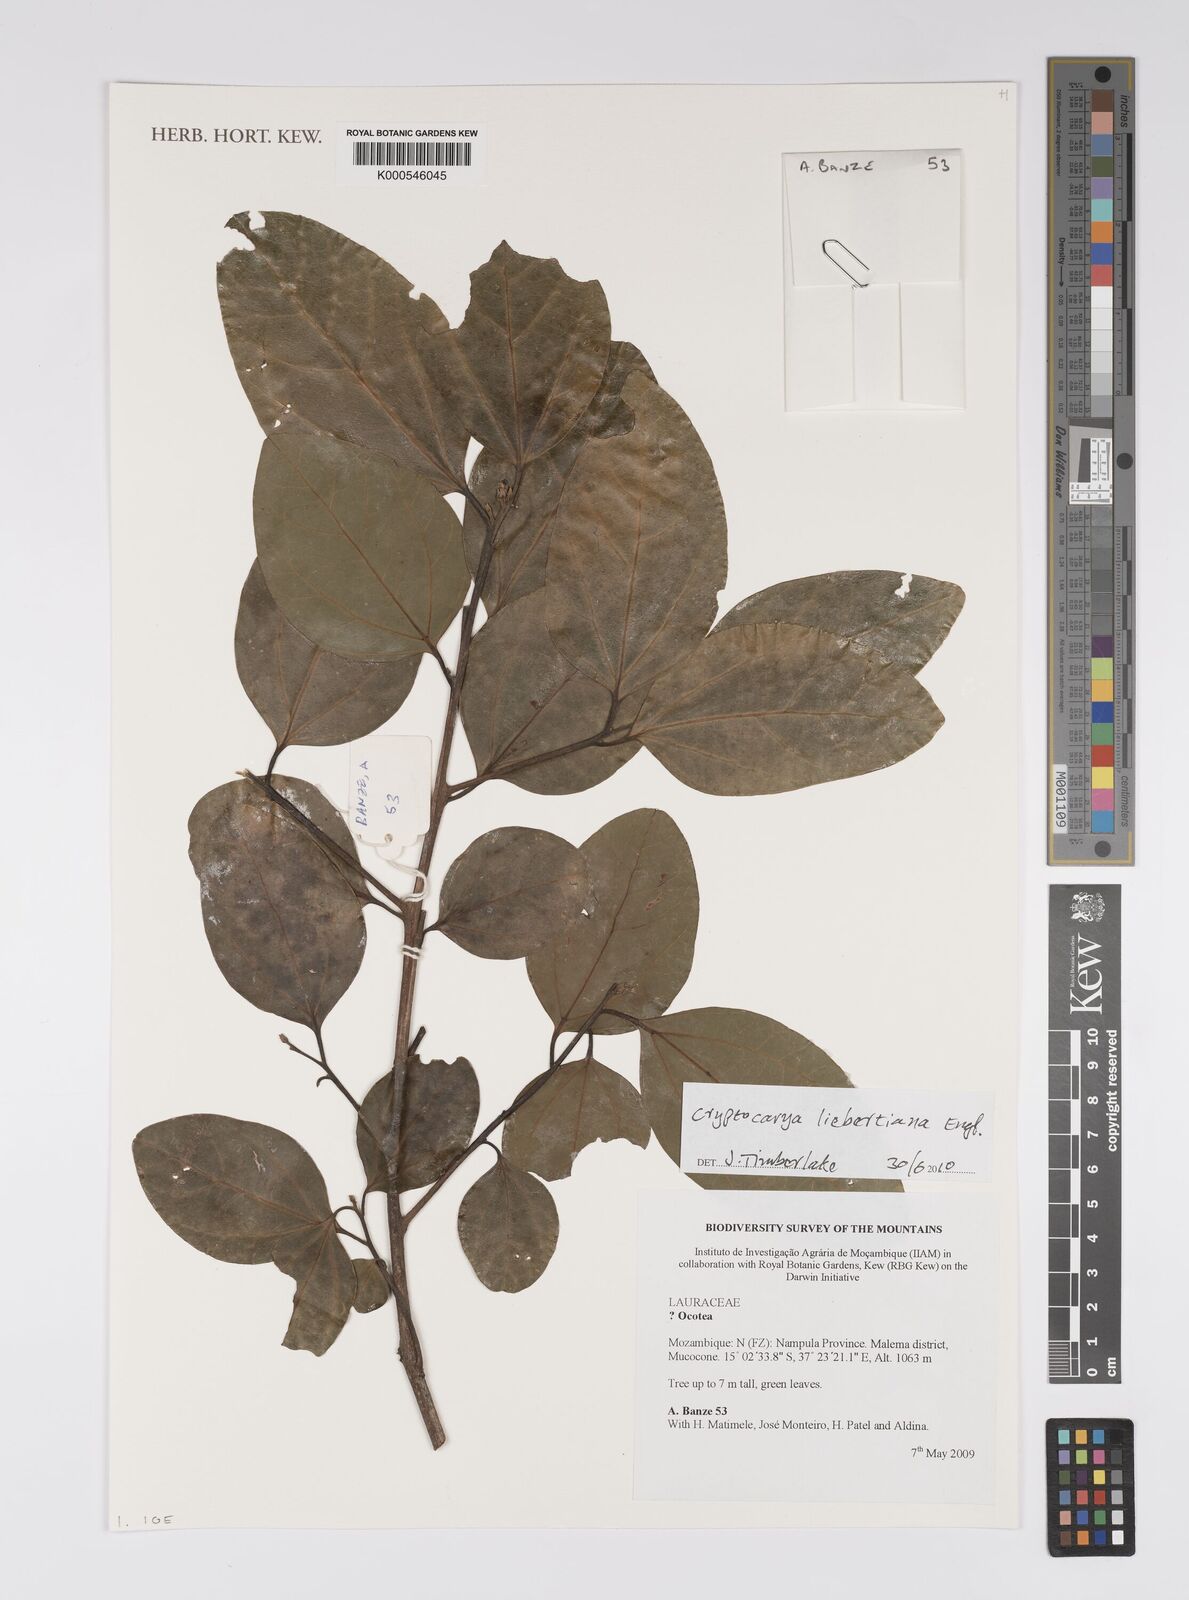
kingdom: Plantae
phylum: Tracheophyta
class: Magnoliopsida
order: Laurales
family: Lauraceae
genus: Cryptocarya
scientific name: Cryptocarya liebertiana
